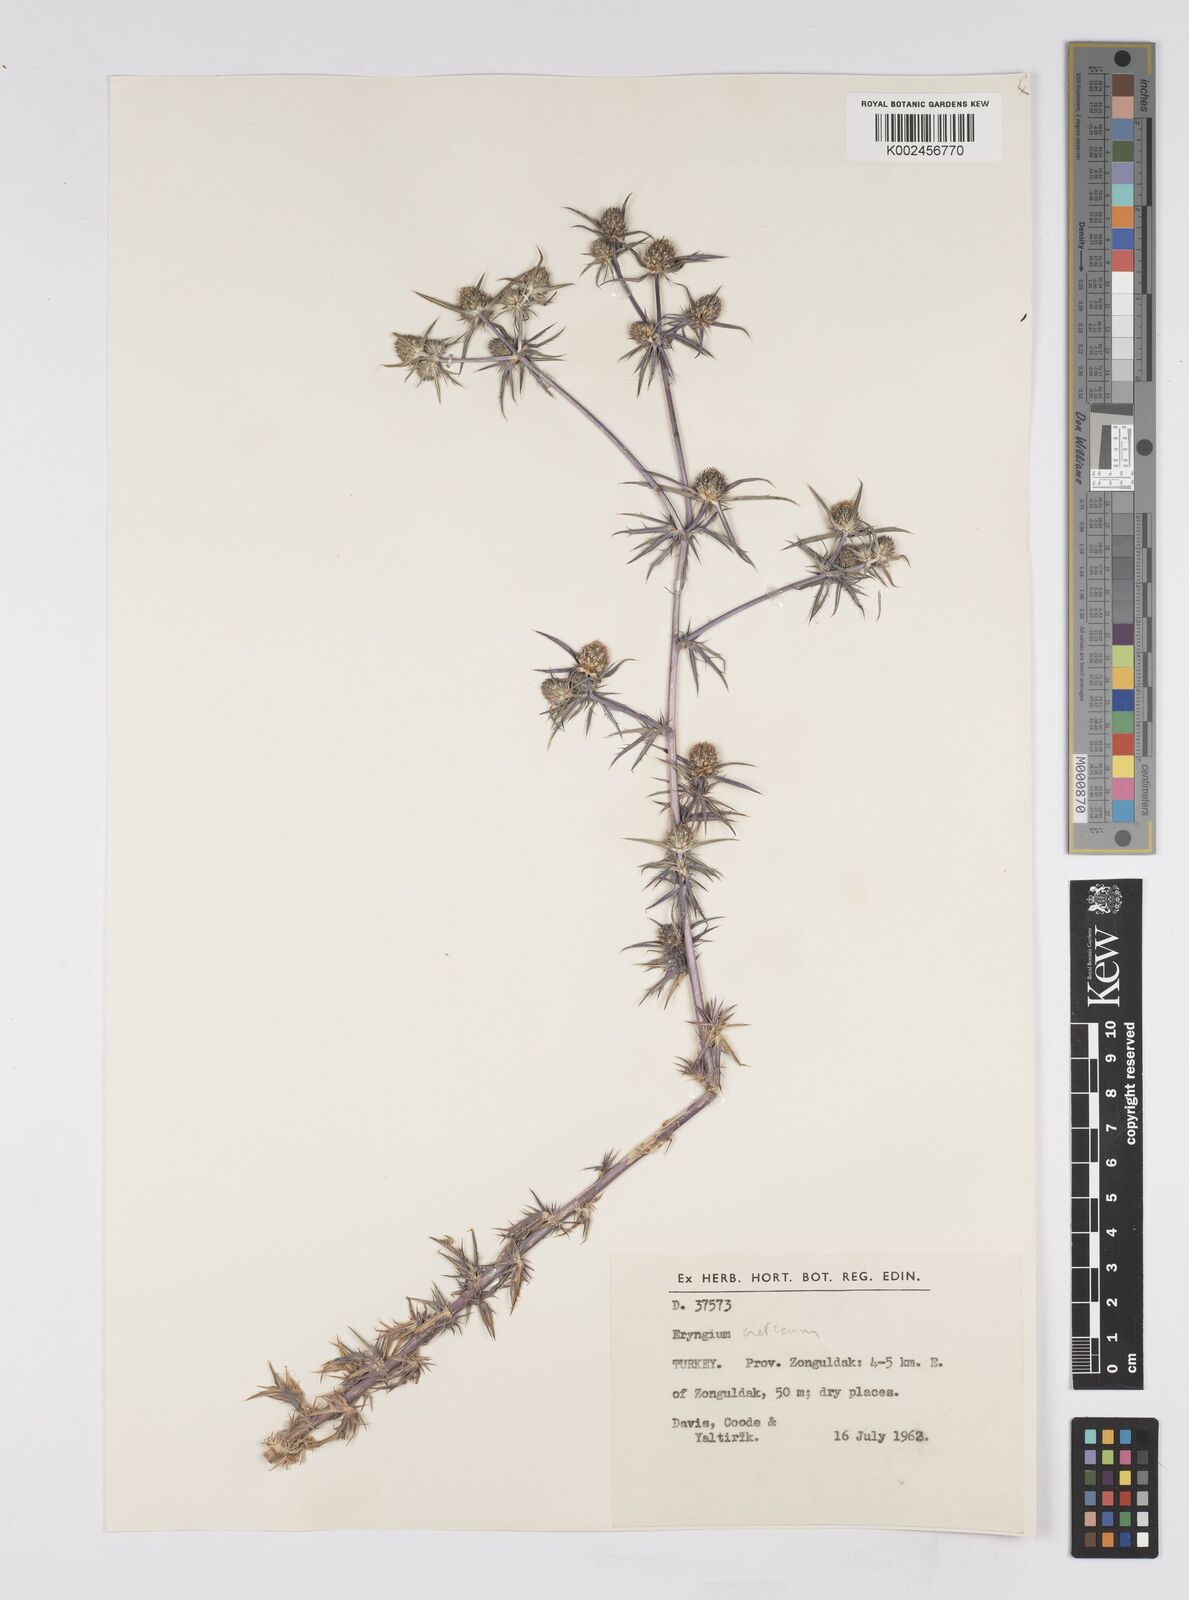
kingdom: Plantae
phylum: Tracheophyta
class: Magnoliopsida
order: Apiales
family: Apiaceae
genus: Eryngium
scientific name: Eryngium creticum
